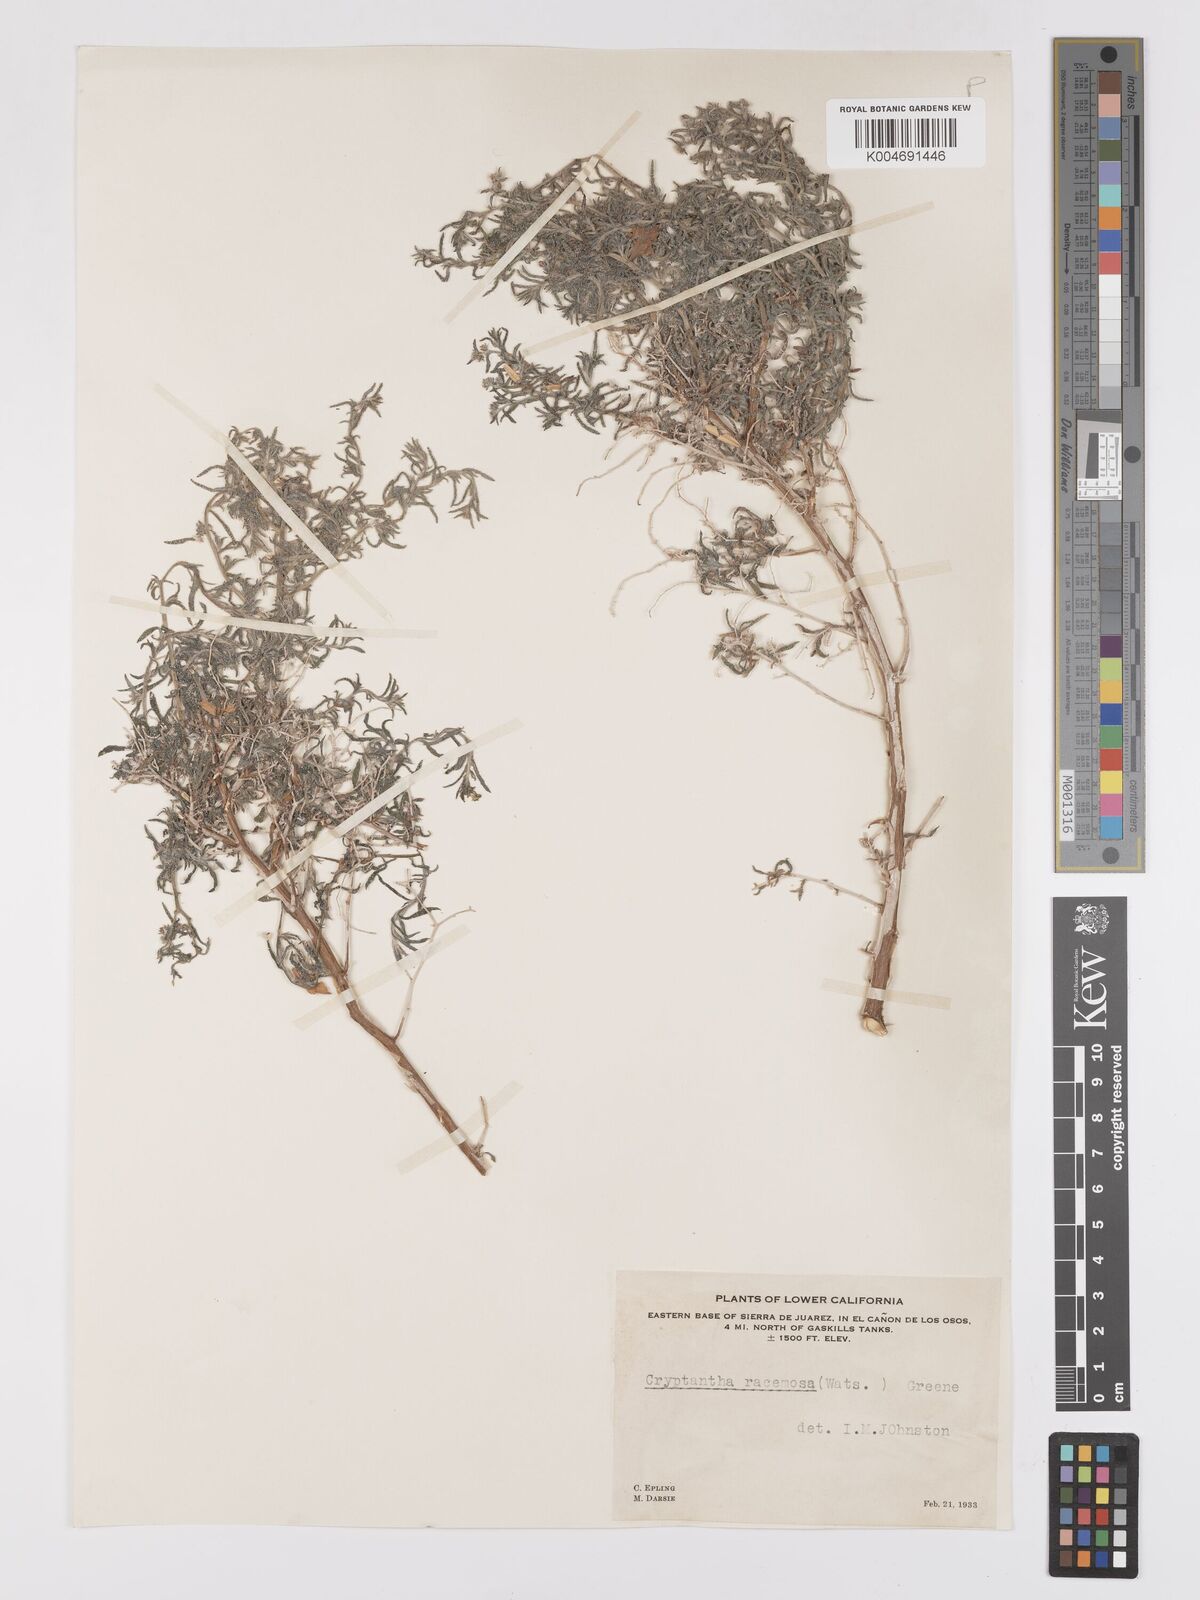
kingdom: Plantae
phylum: Tracheophyta
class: Magnoliopsida
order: Boraginales
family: Boraginaceae
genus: Johnstonella
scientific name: Johnstonella racemosa
